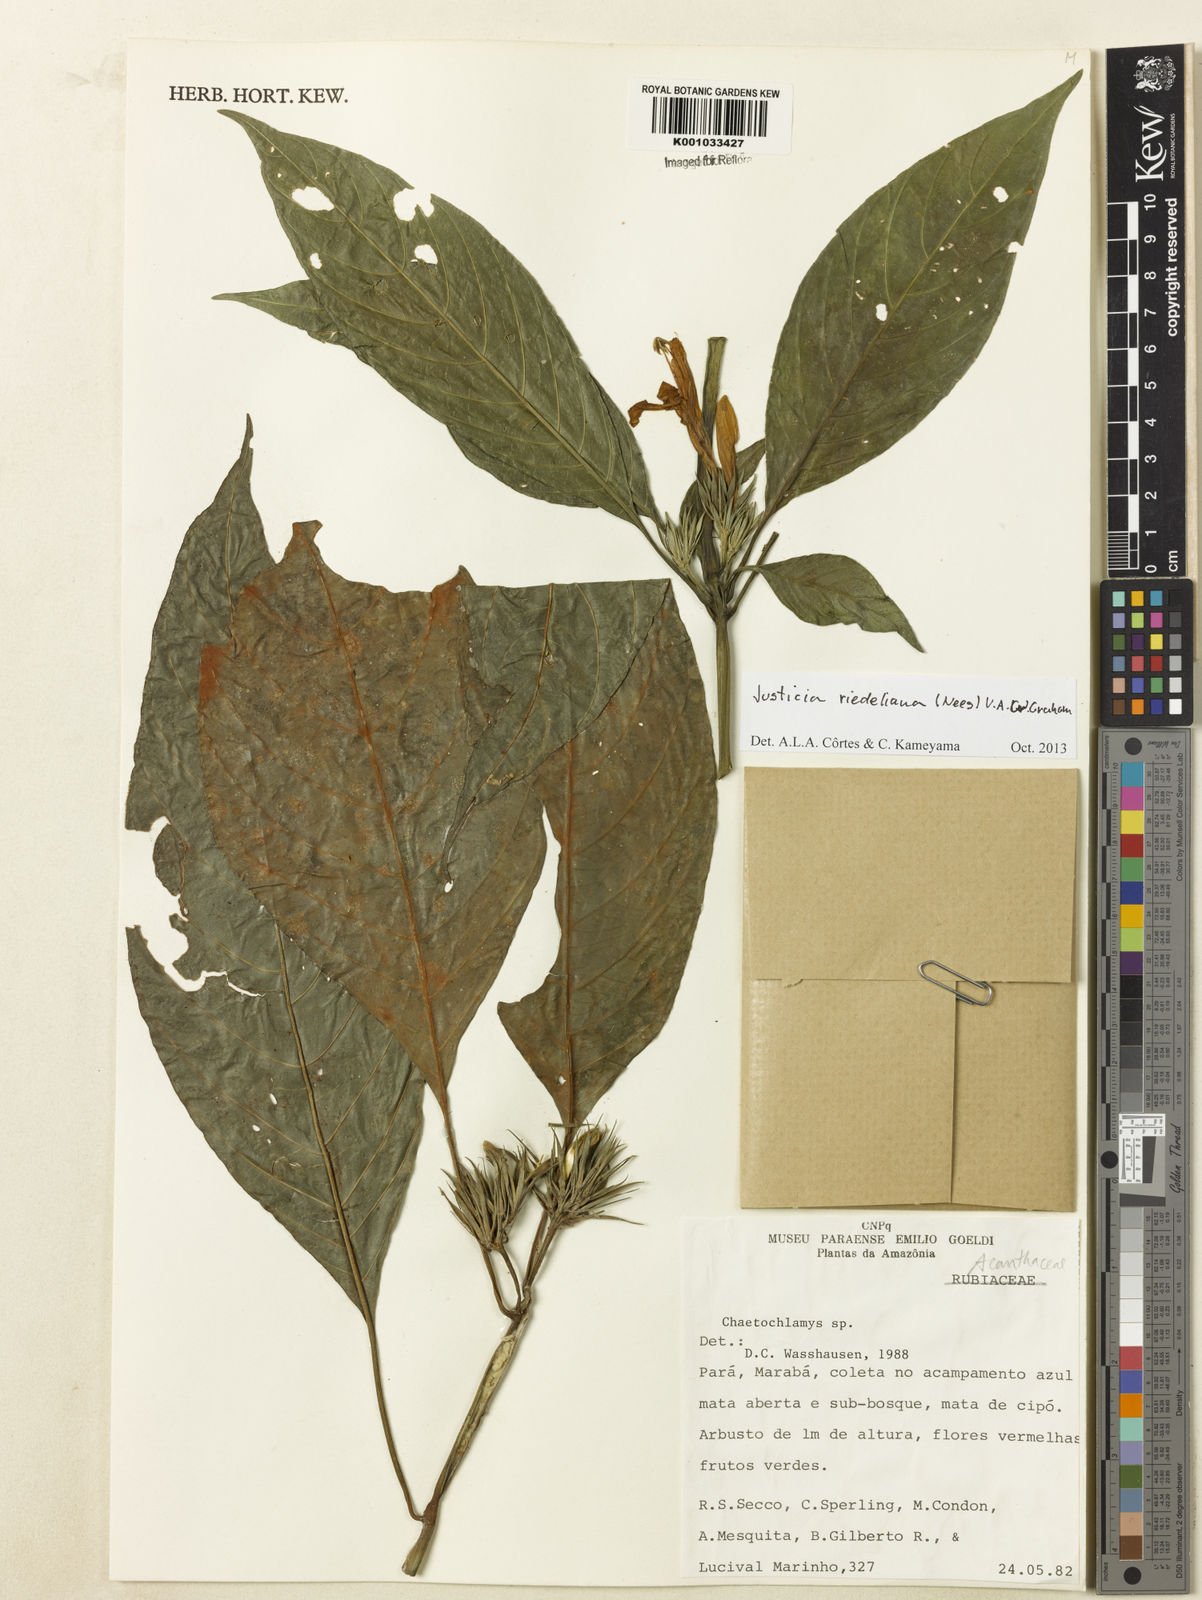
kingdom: Plantae
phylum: Tracheophyta
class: Magnoliopsida
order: Lamiales
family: Acanthaceae
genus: Justicia
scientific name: Justicia riedeliana
